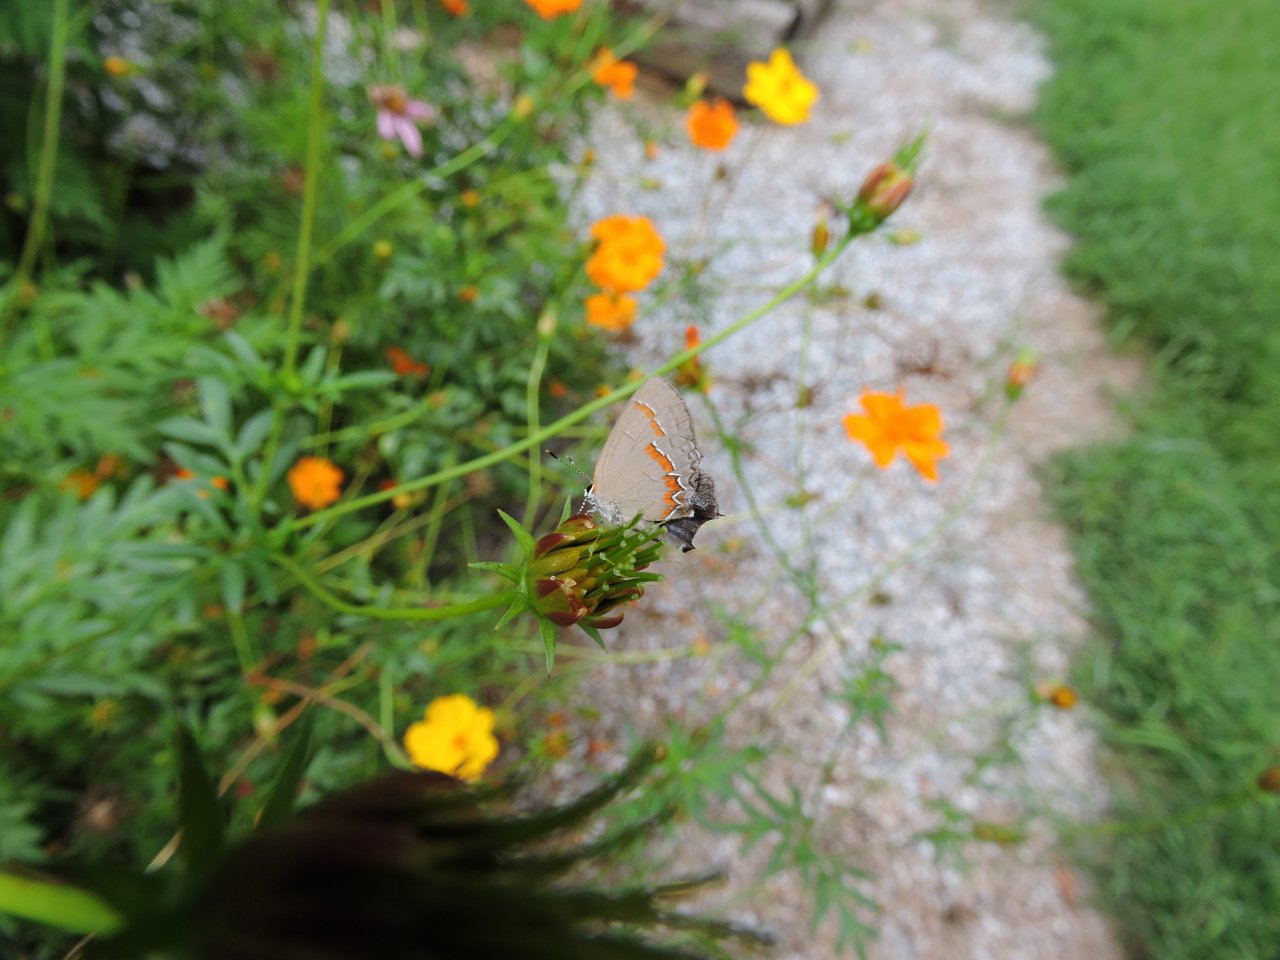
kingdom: Animalia
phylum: Arthropoda
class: Insecta
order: Lepidoptera
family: Lycaenidae
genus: Calycopis
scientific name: Calycopis cecrops
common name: Red-banded Hairstreak
